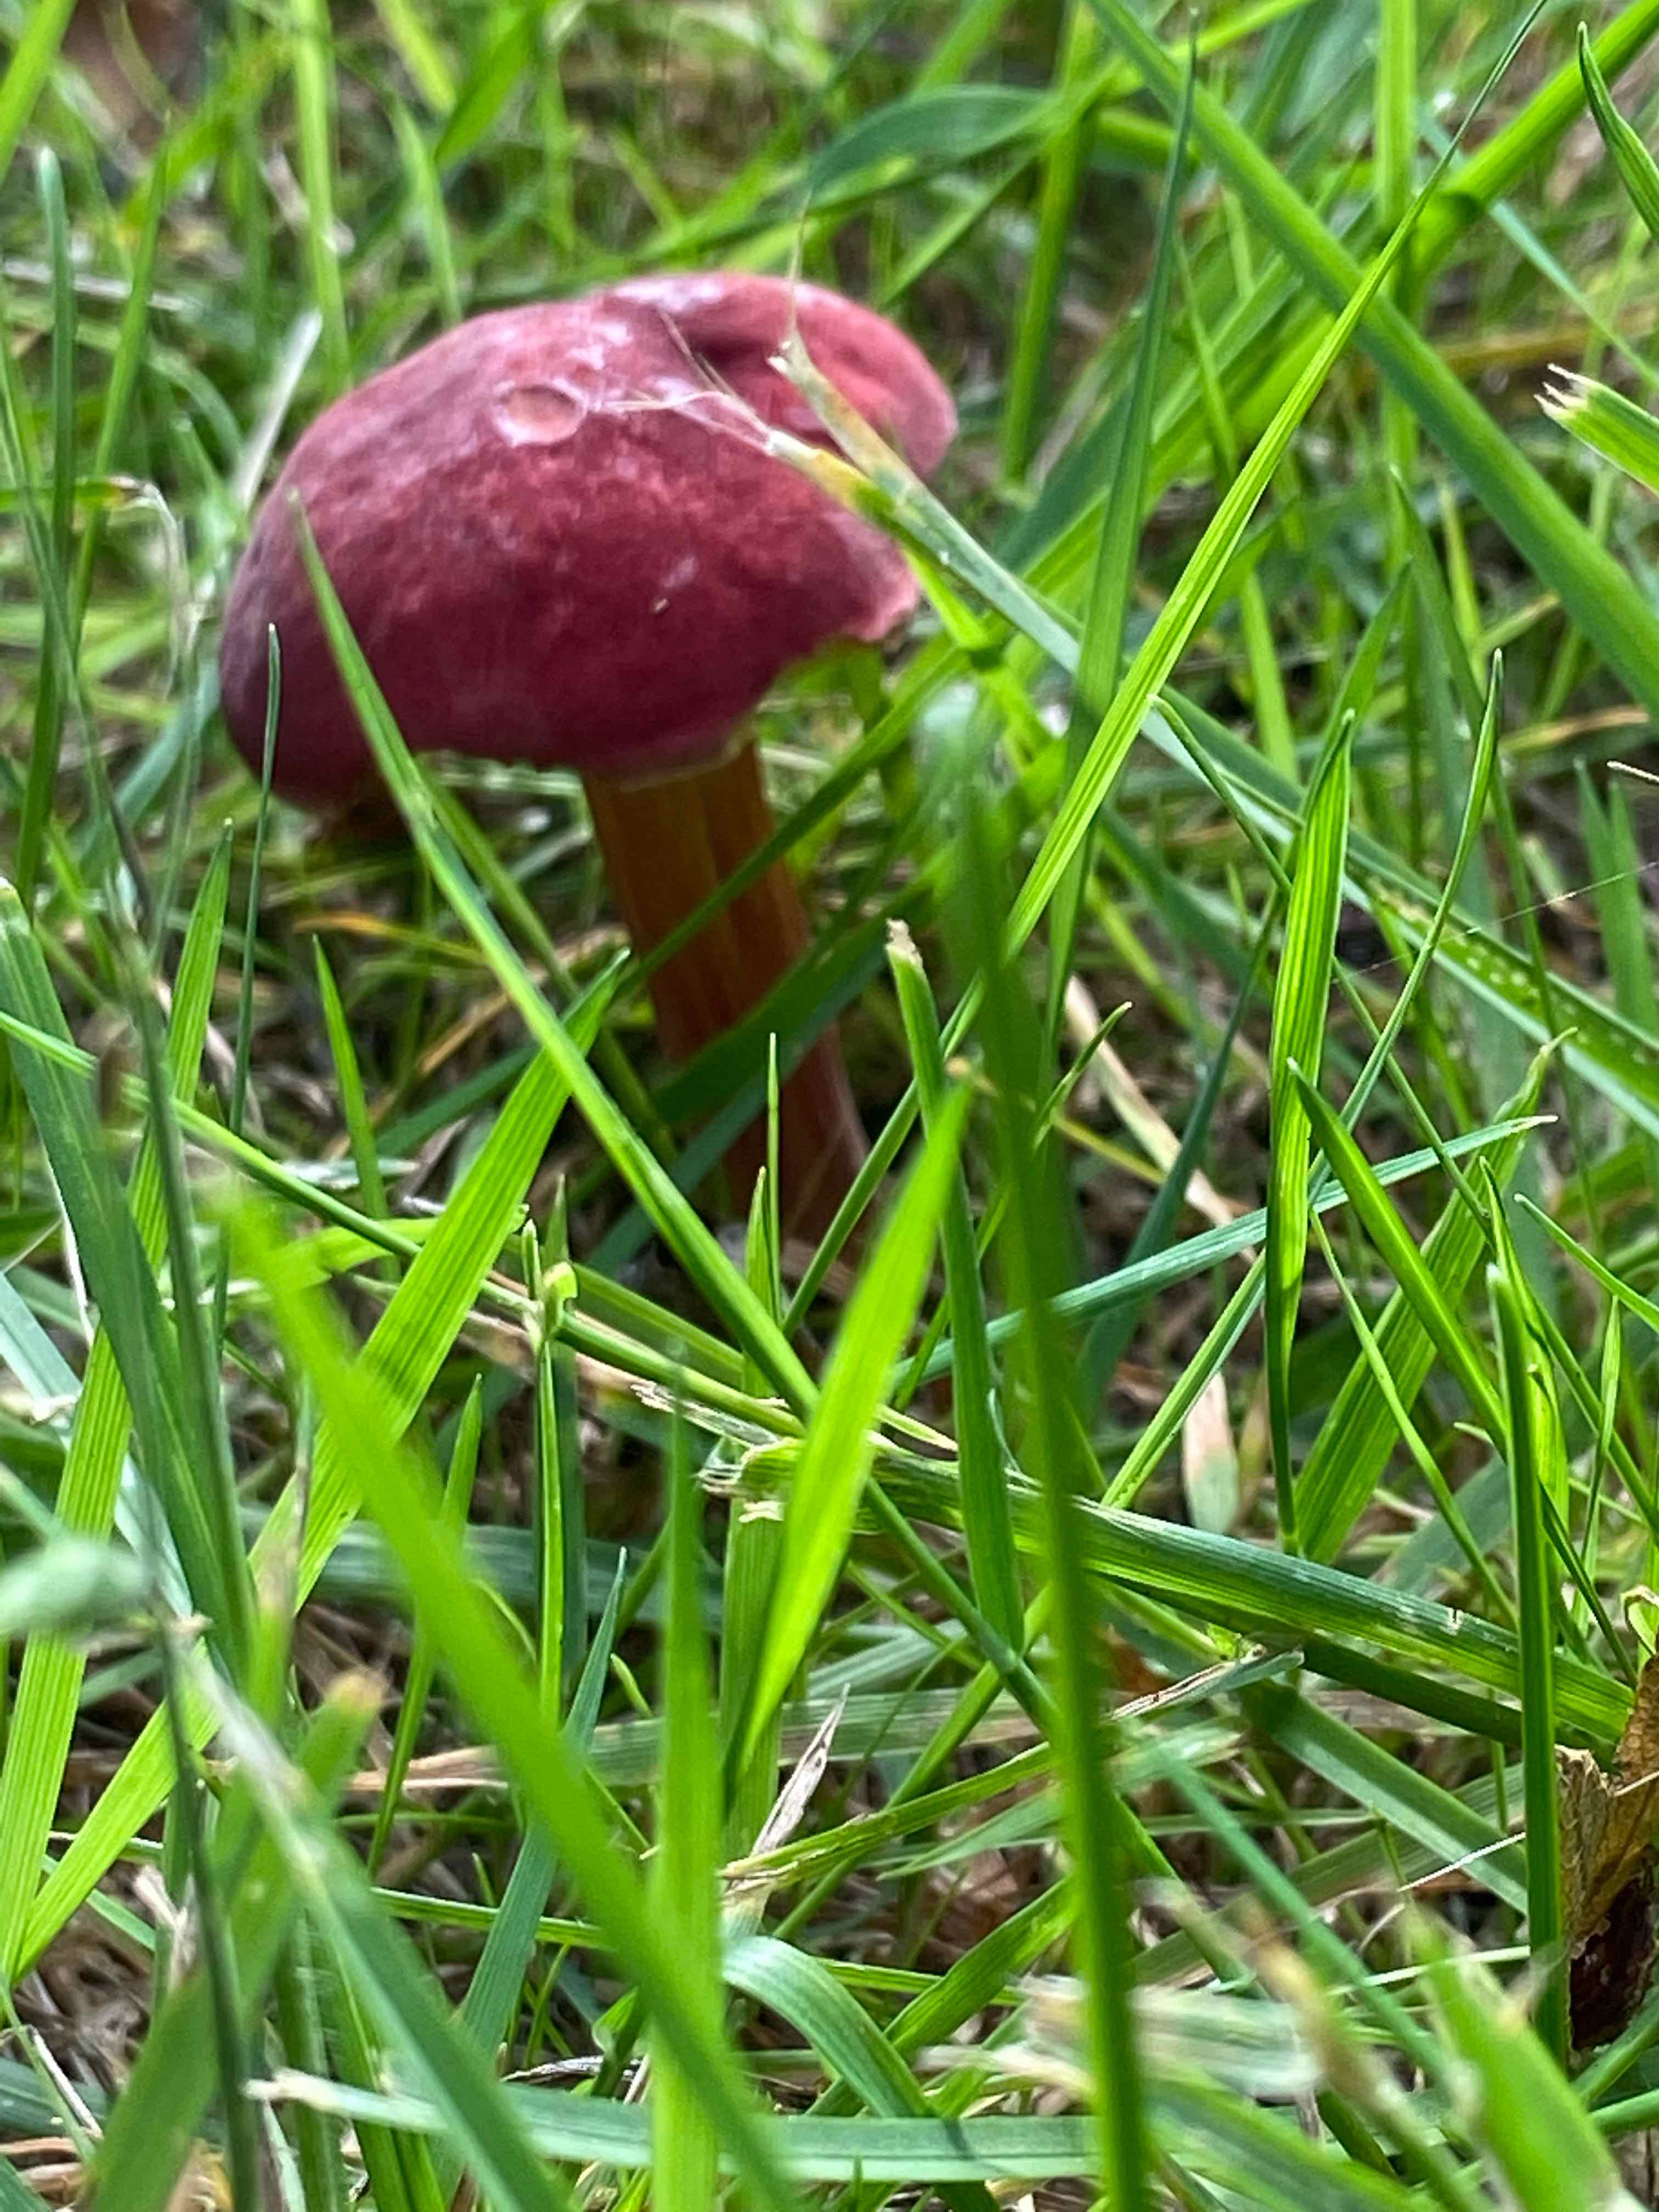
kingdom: Fungi
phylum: Basidiomycota
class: Agaricomycetes
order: Boletales
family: Boletaceae
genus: Hortiboletus
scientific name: Hortiboletus rubellus
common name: blodrød rørhat
